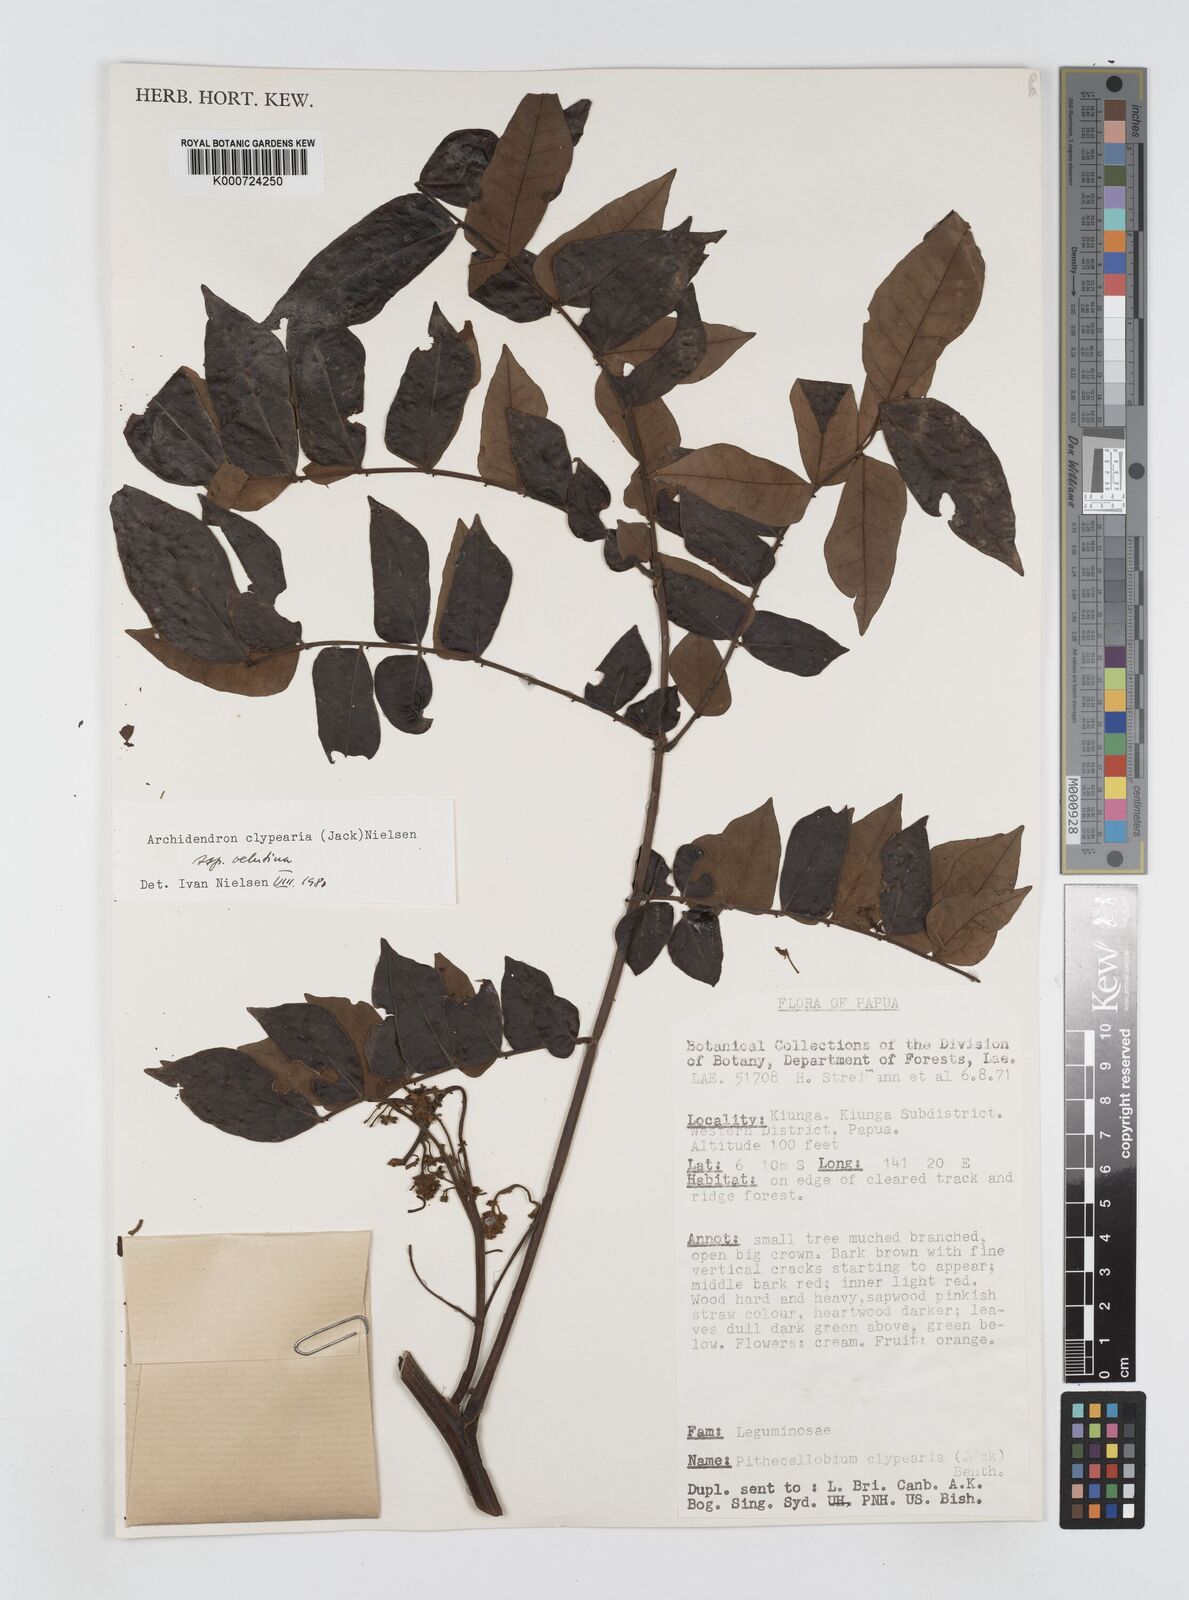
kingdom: Plantae
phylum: Tracheophyta
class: Magnoliopsida
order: Fabales
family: Fabaceae
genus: Archidendron
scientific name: Archidendron clypearia
